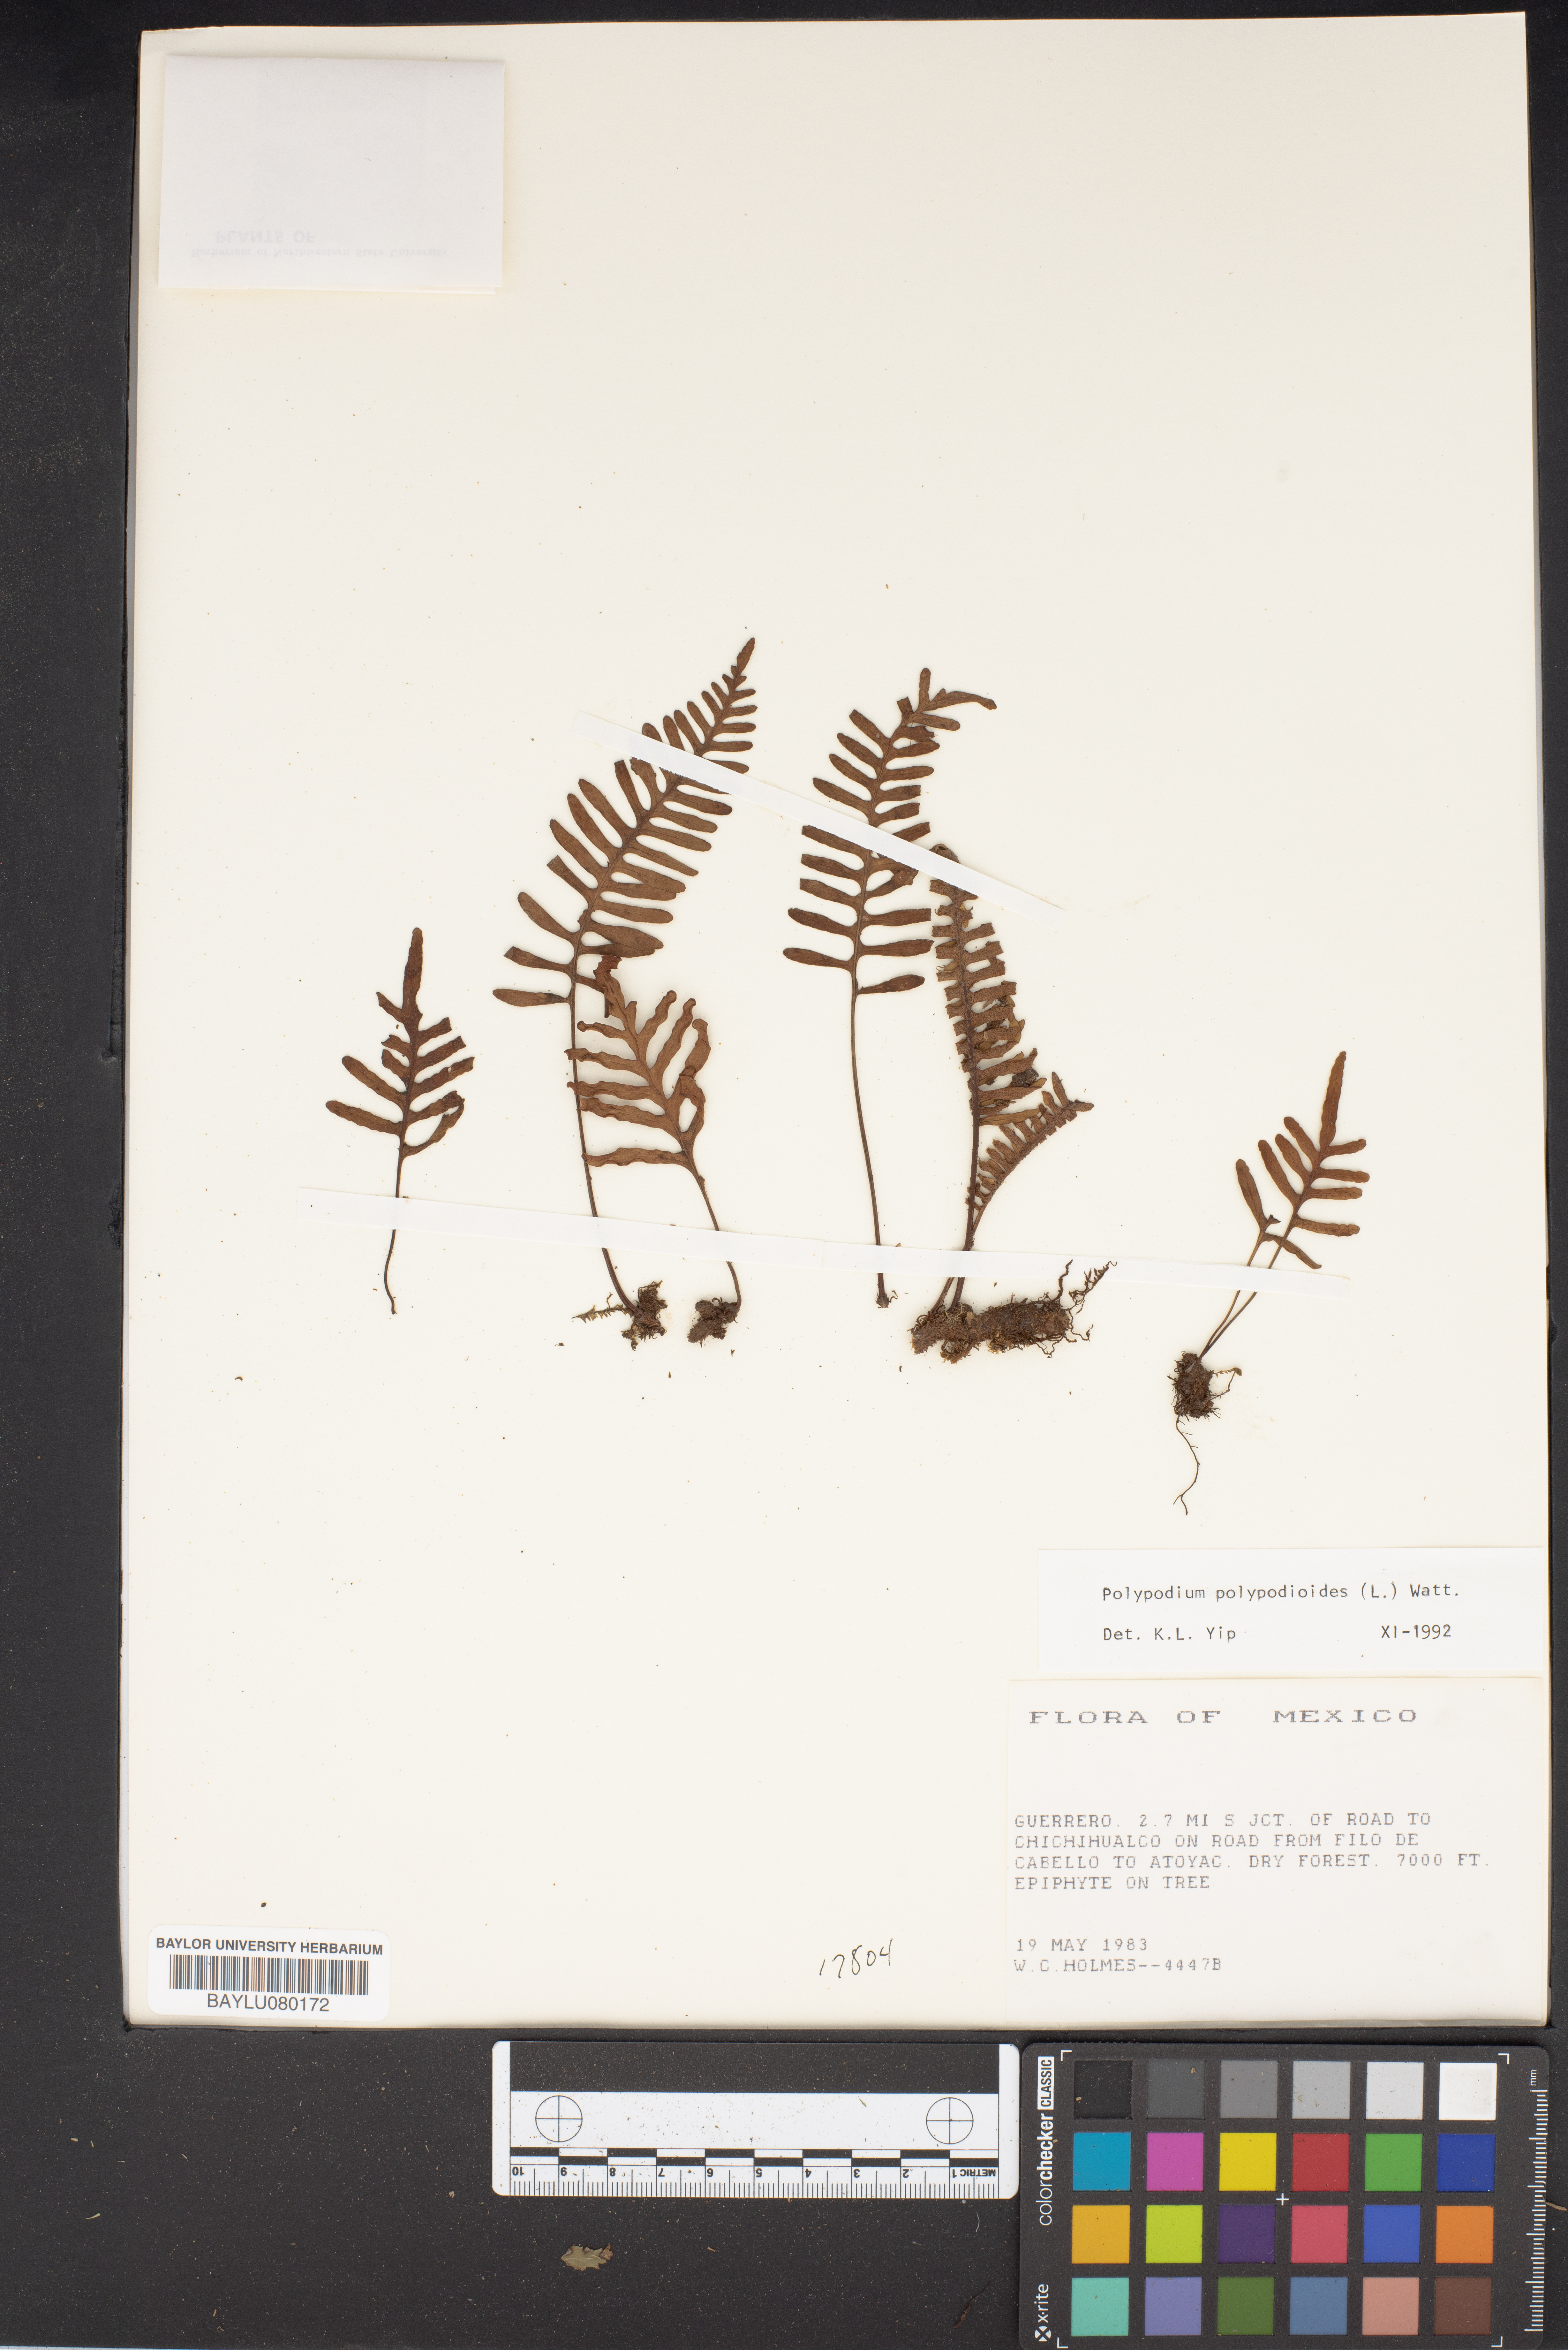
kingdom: Plantae
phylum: Tracheophyta
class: Polypodiopsida
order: Polypodiales
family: Polypodiaceae
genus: Pleopeltis
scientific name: Pleopeltis polypodioides
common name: Resurrection fern
